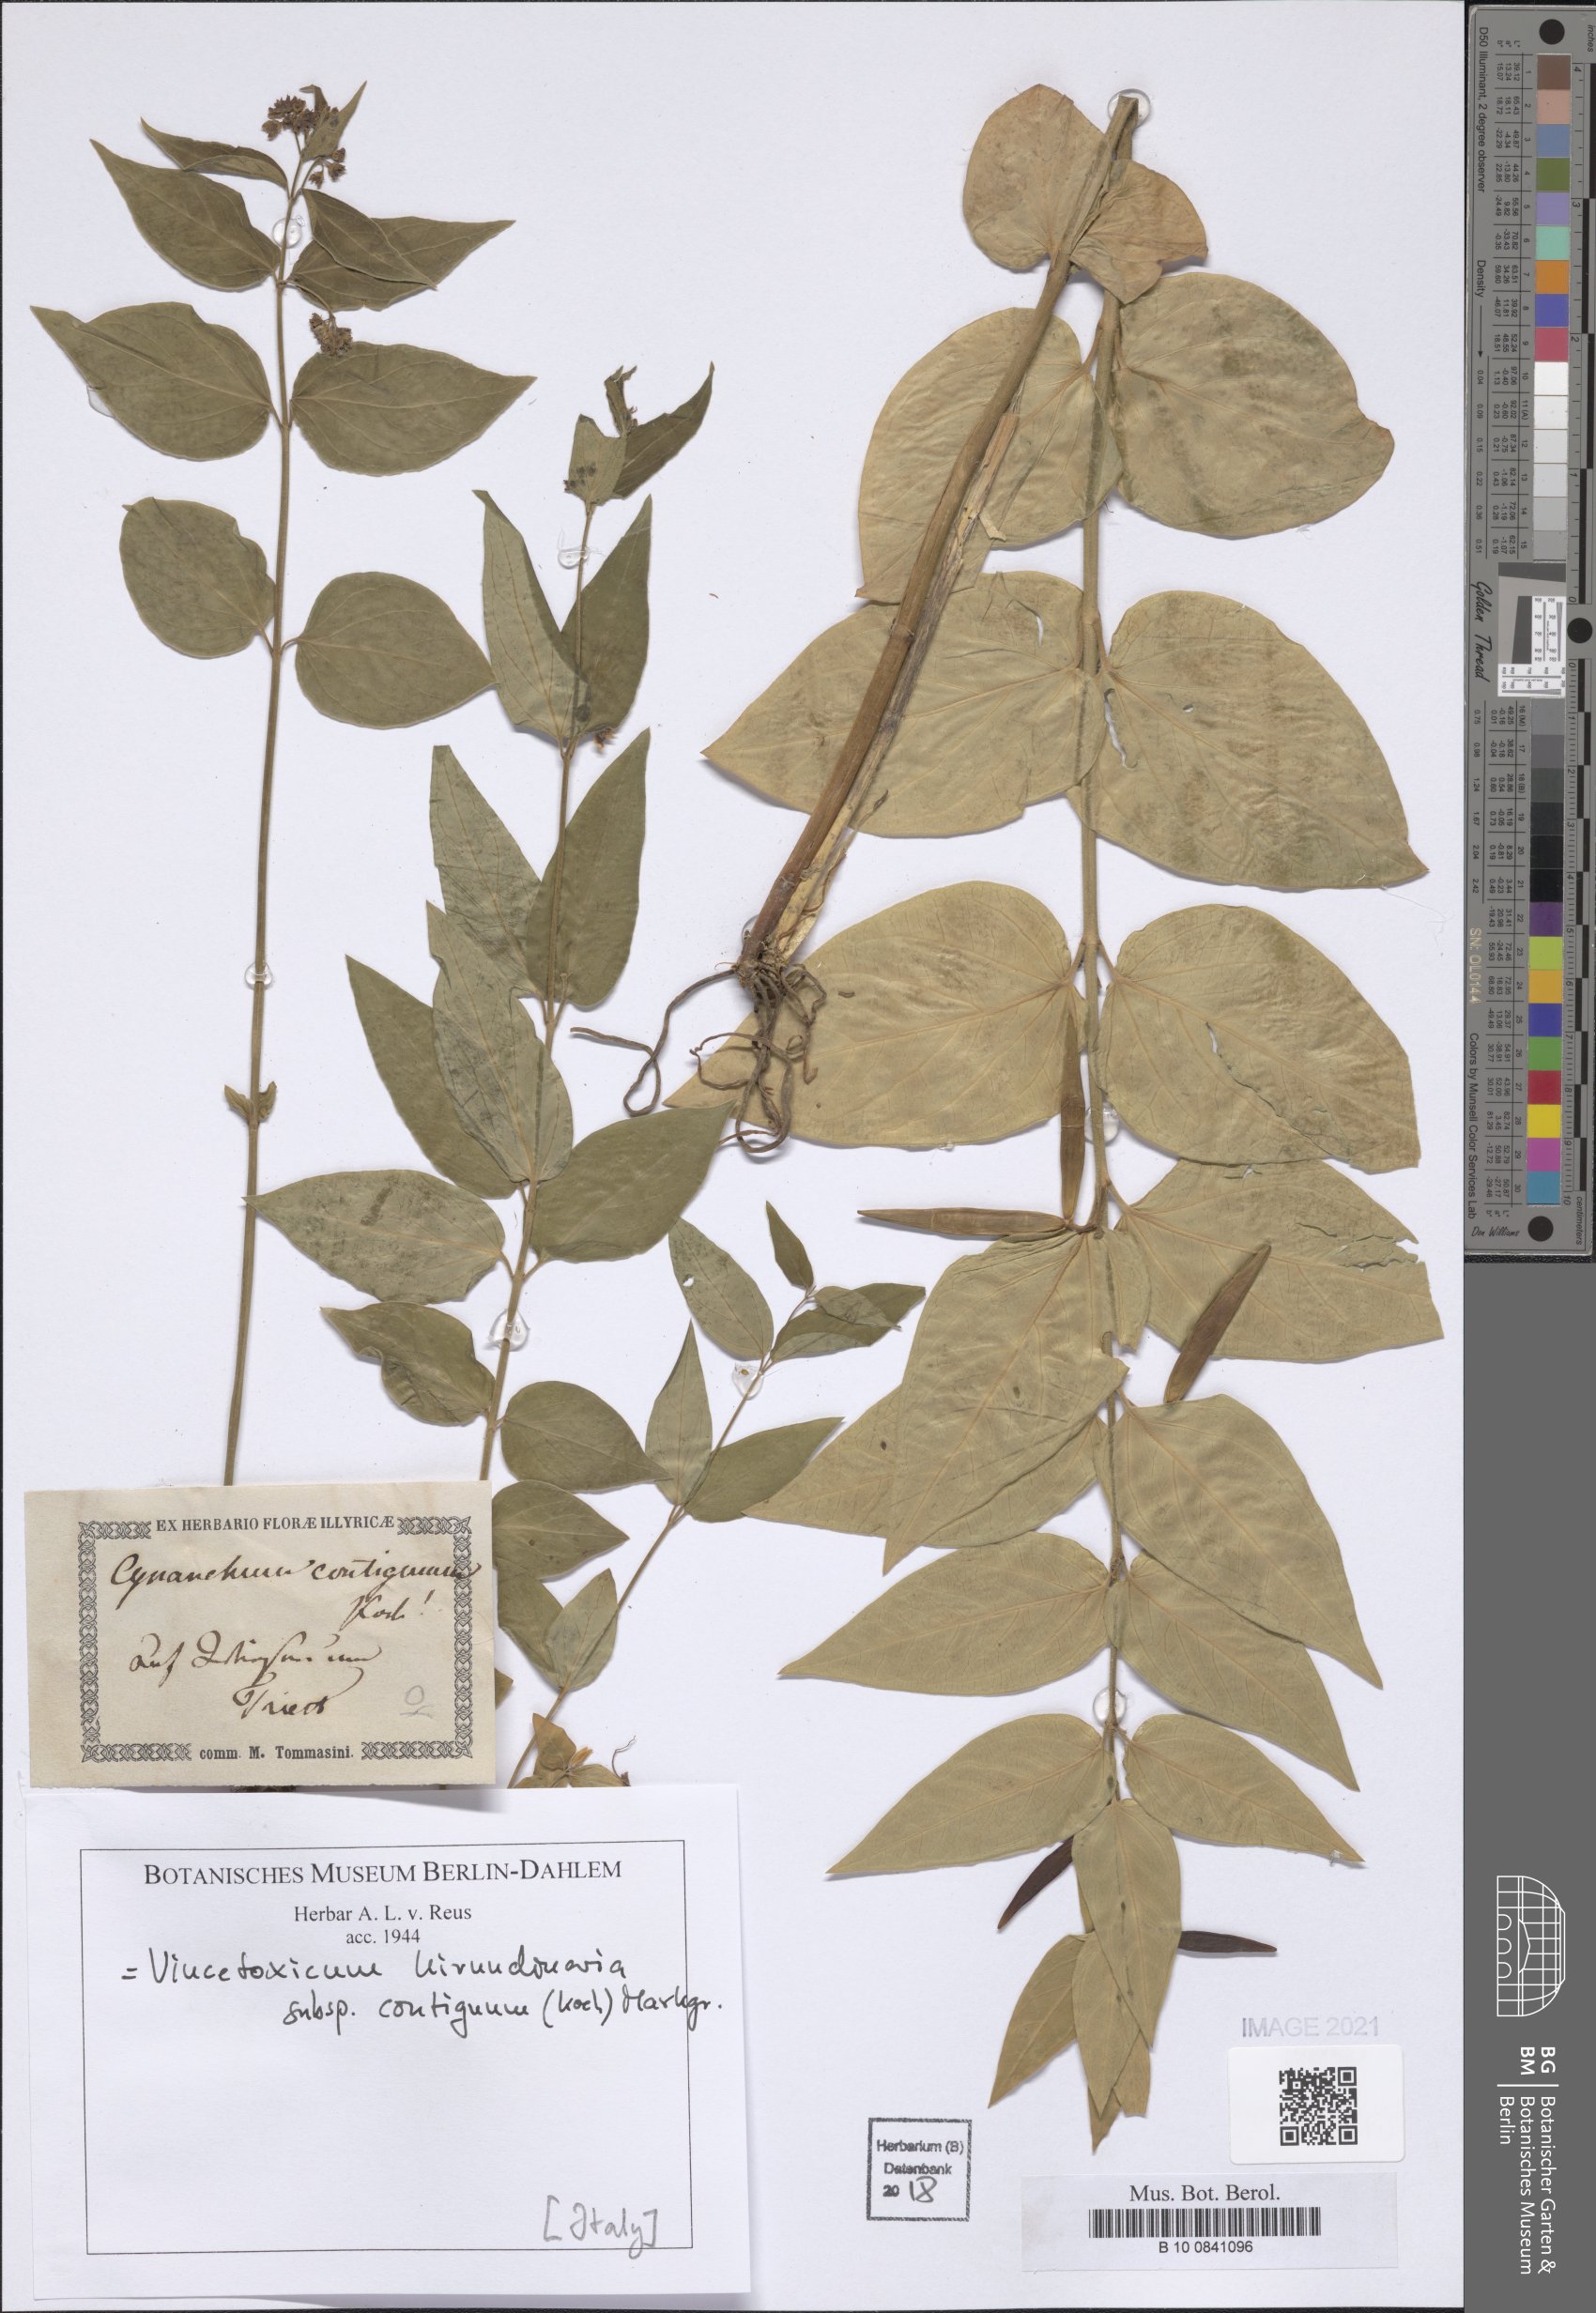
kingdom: Plantae
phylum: Tracheophyta
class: Magnoliopsida
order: Gentianales
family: Apocynaceae
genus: Vincetoxicum
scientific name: Vincetoxicum hirundinaria
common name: White swallowwort
